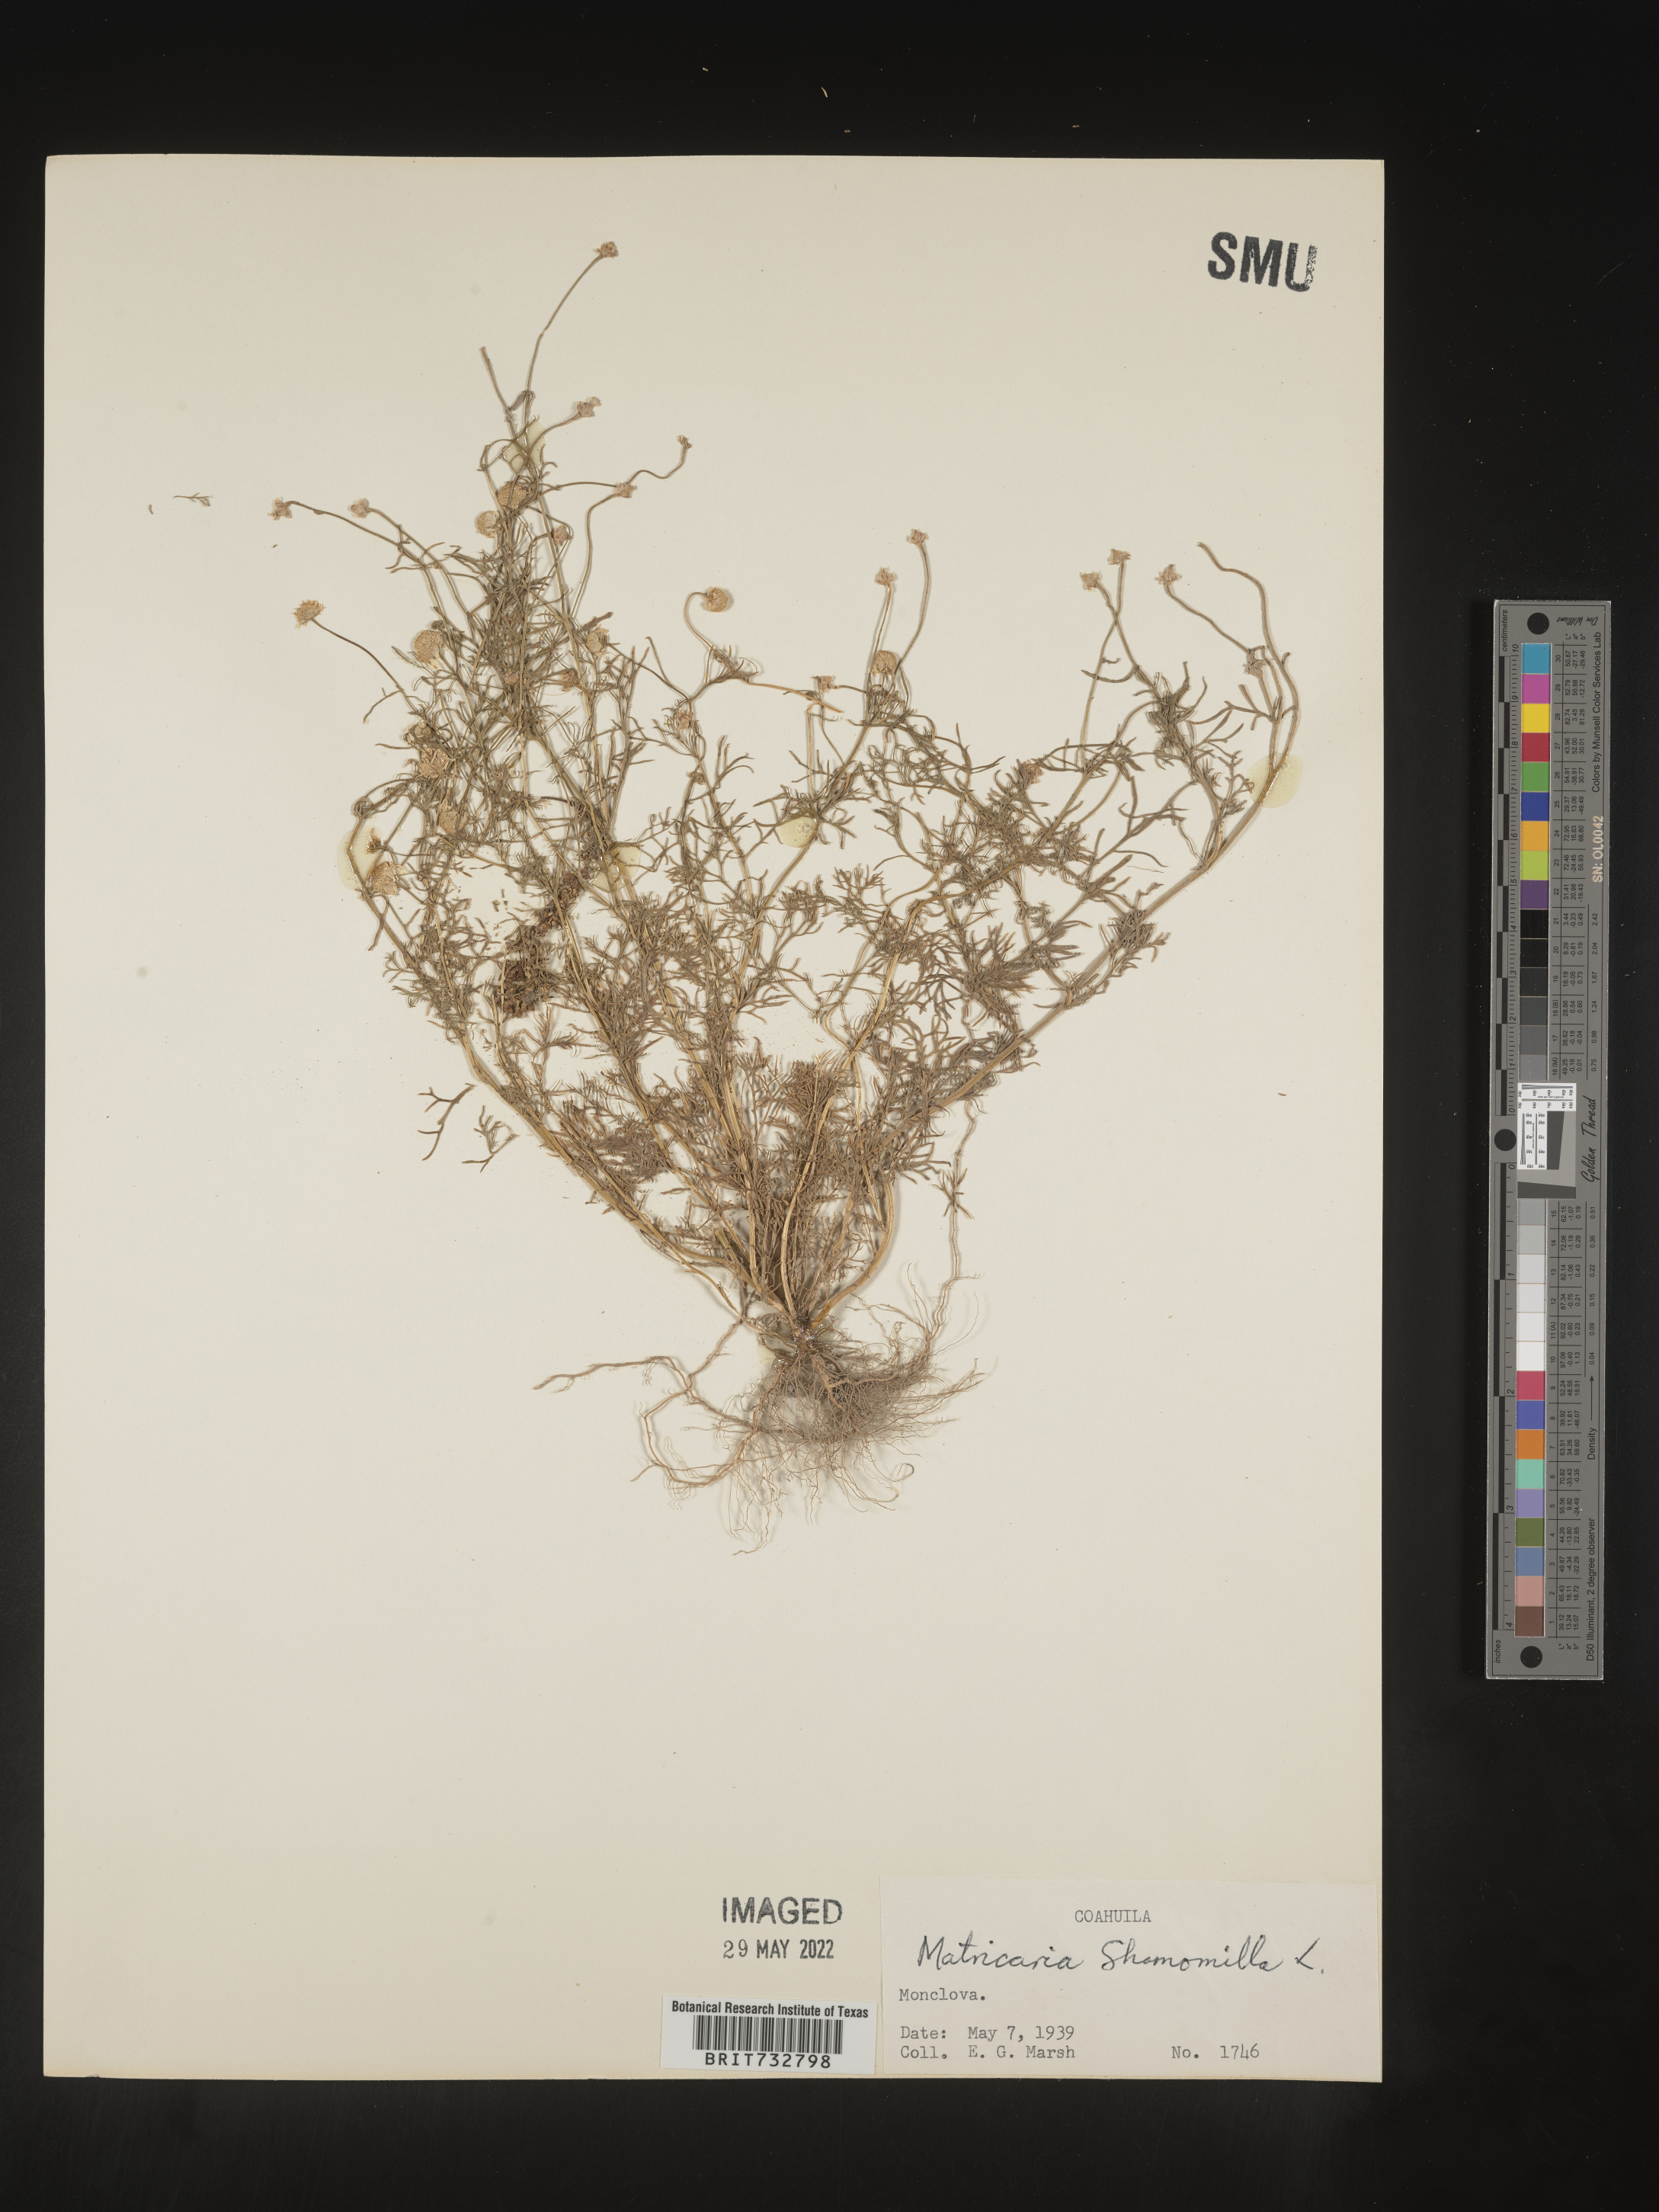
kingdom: Plantae
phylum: Tracheophyta
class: Magnoliopsida
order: Asterales
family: Asteraceae
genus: Matricaria
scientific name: Matricaria chamomilla
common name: Scented mayweed
